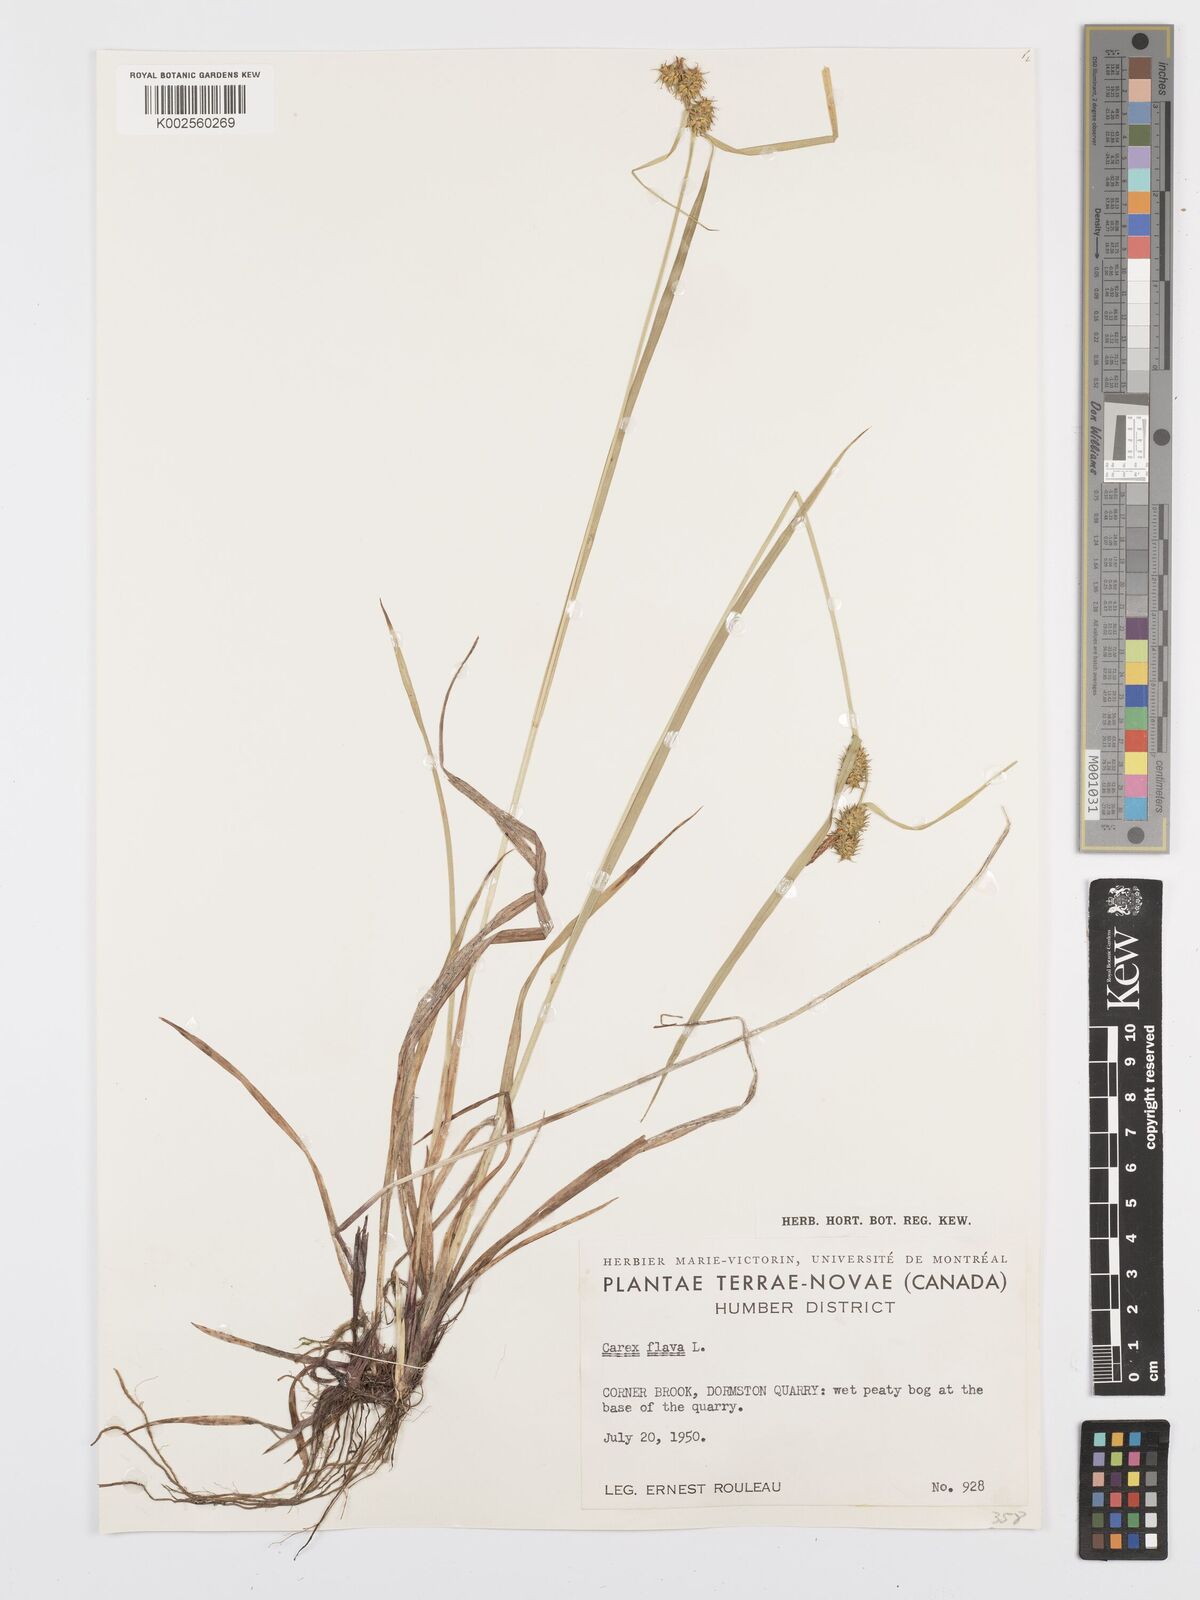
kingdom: Plantae
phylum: Tracheophyta
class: Liliopsida
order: Poales
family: Cyperaceae
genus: Carex
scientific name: Carex flava
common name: Large yellow-sedge
